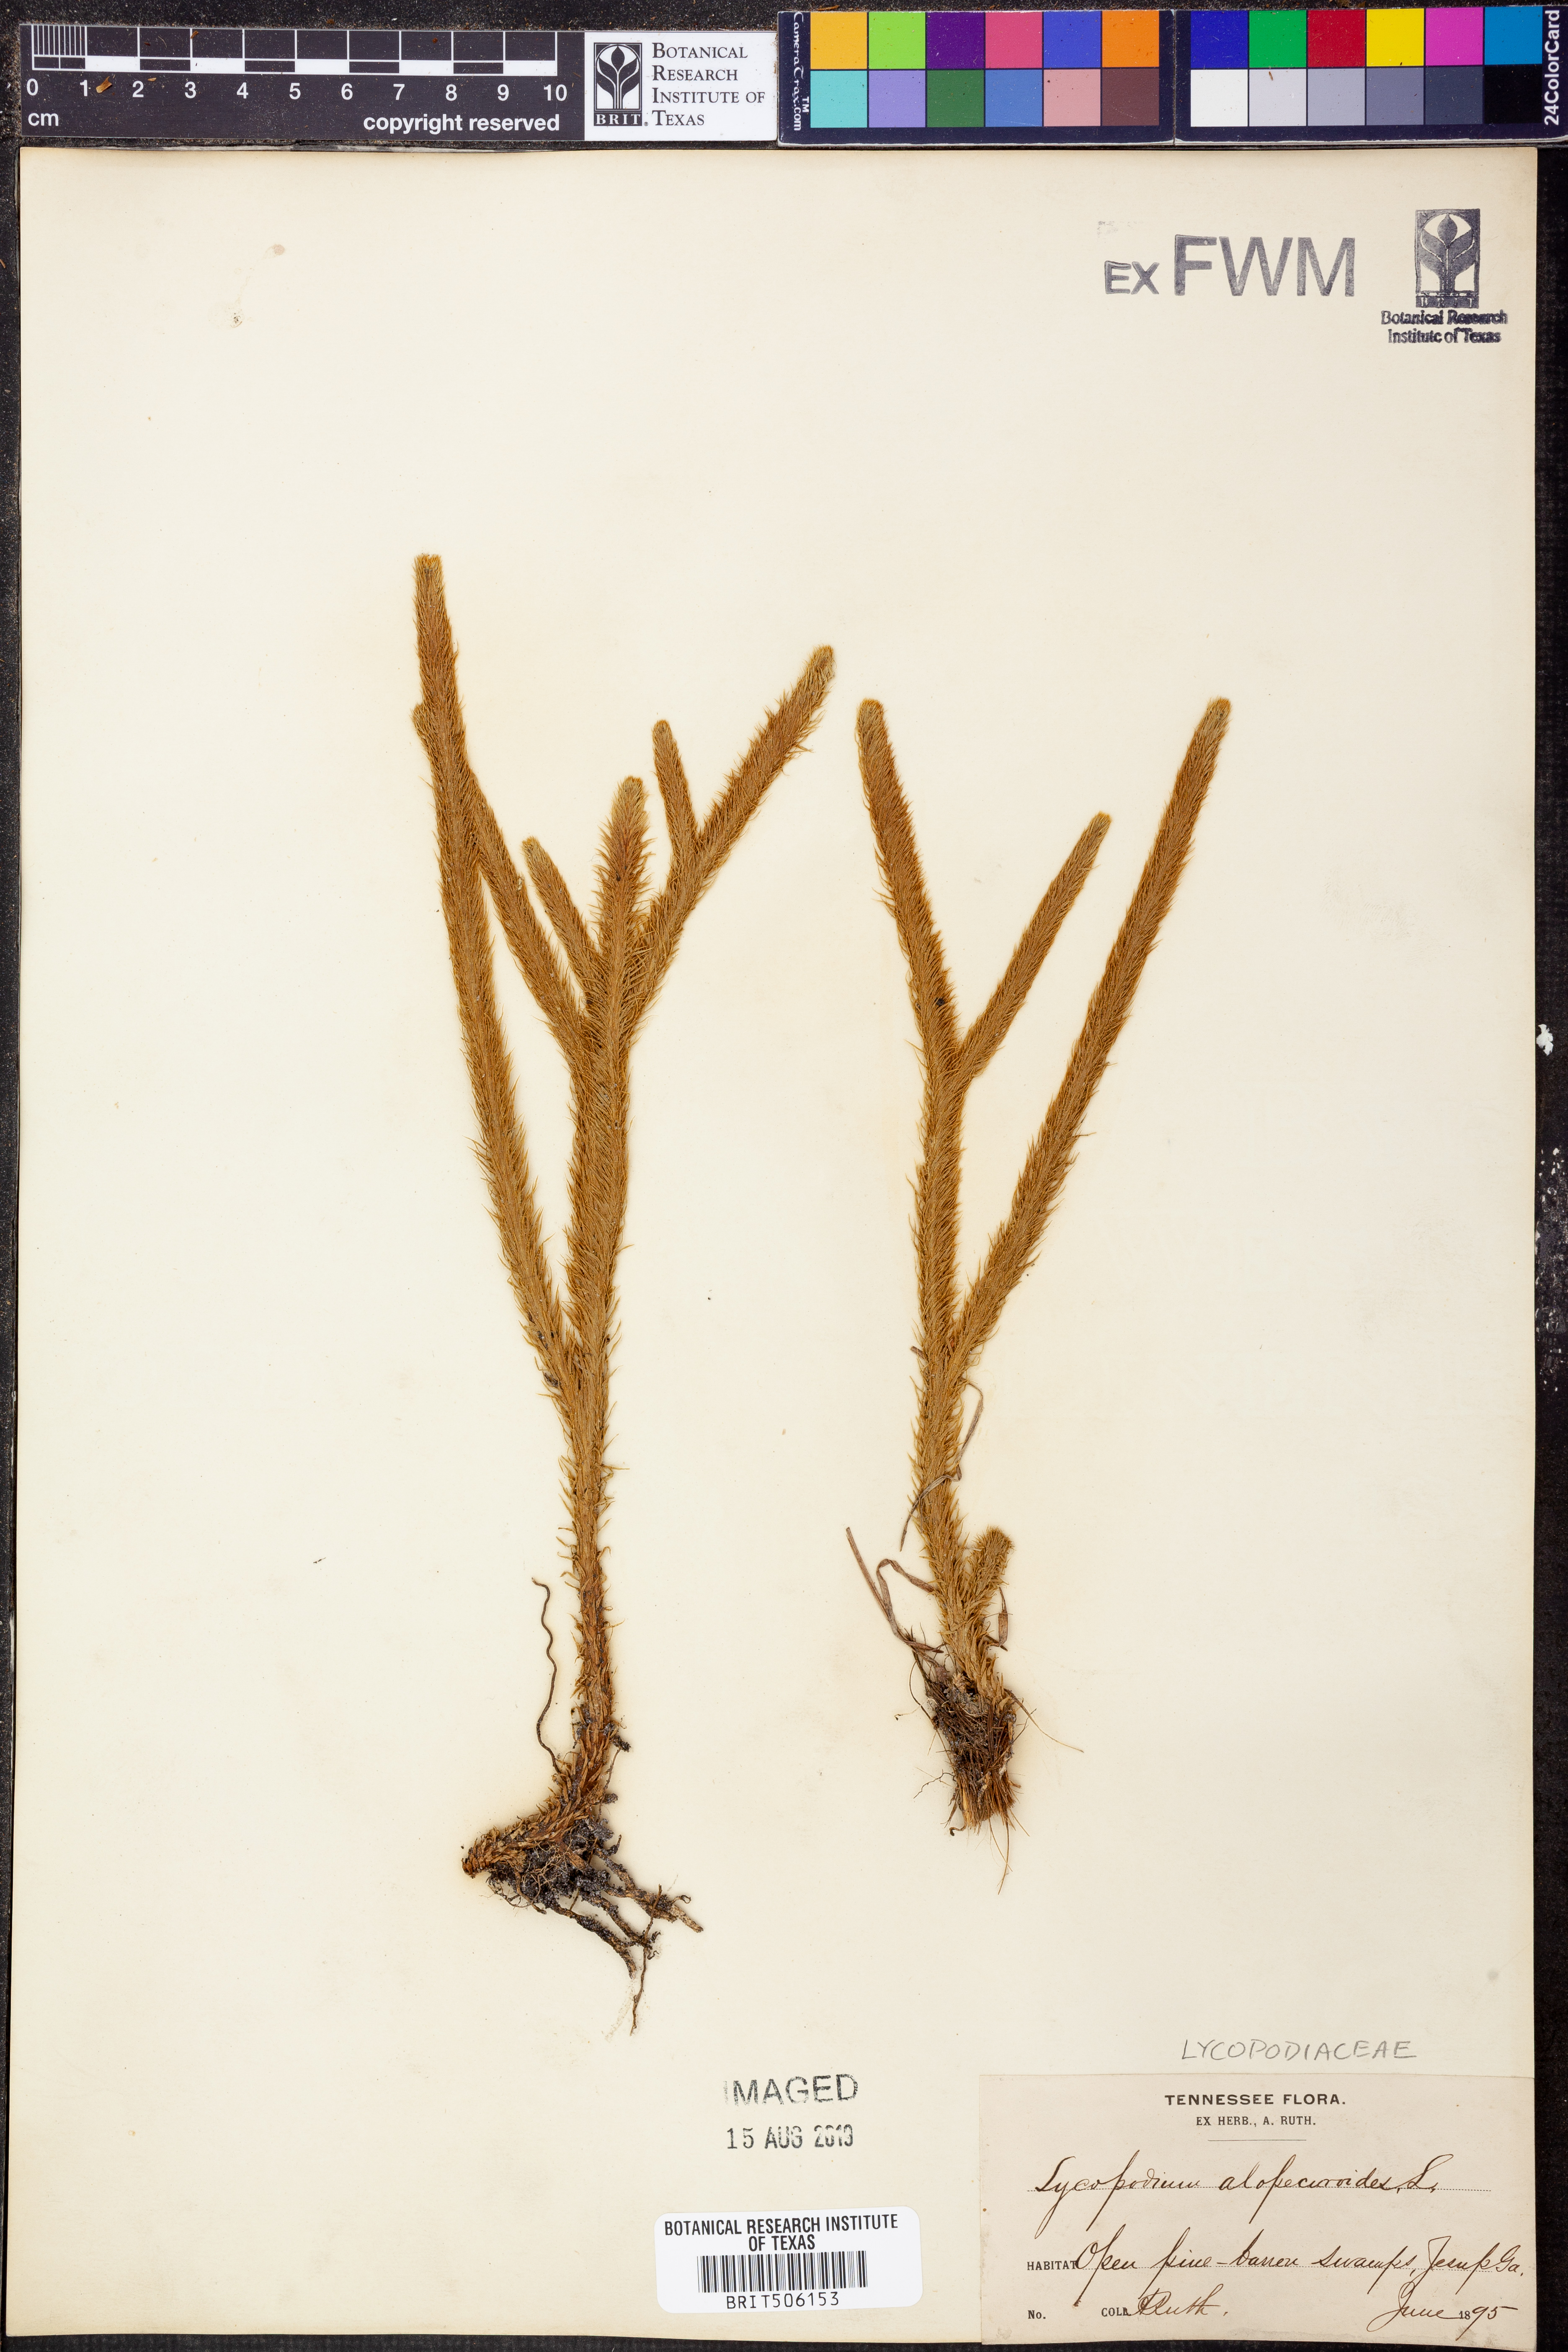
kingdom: Plantae
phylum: Tracheophyta
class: Lycopodiopsida
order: Lycopodiales
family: Lycopodiaceae
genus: Lycopodiella
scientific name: Lycopodiella alopecuroides
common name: Foxtail clubmoss
